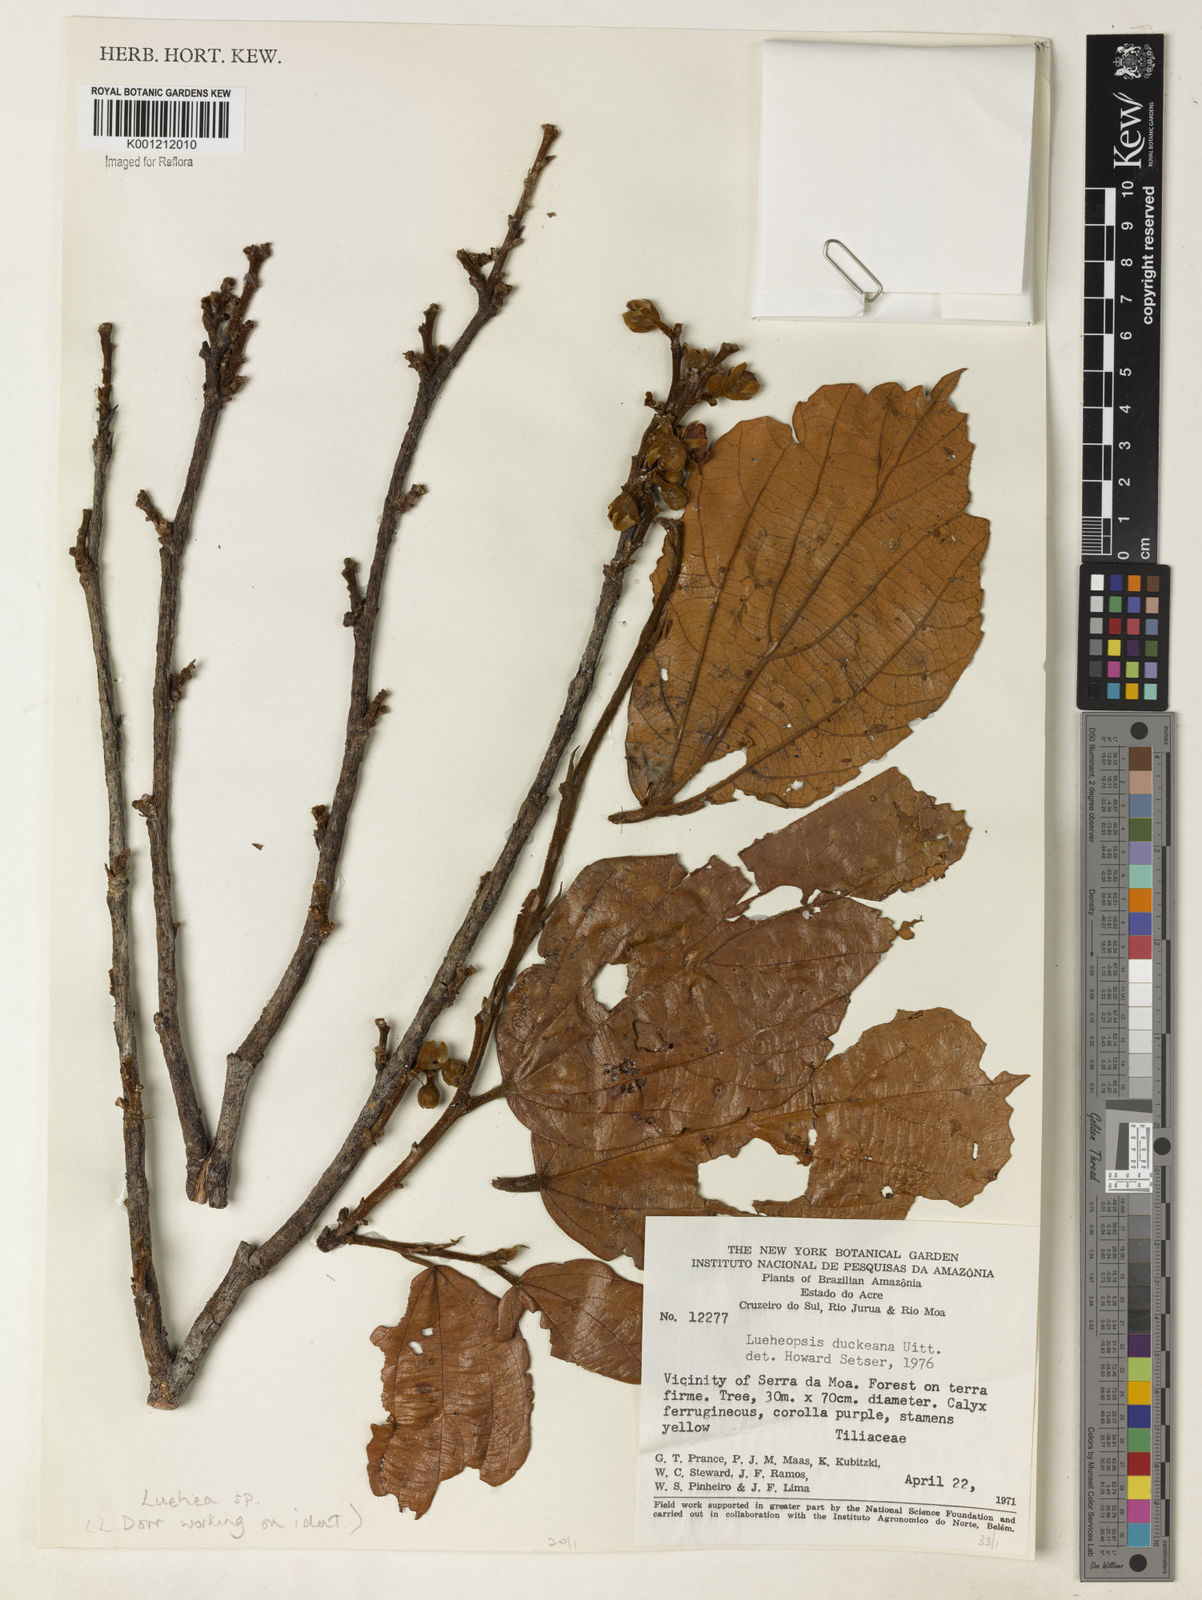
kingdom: Plantae
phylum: Tracheophyta
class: Magnoliopsida
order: Malvales
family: Malvaceae
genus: Luehea
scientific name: Luehea
